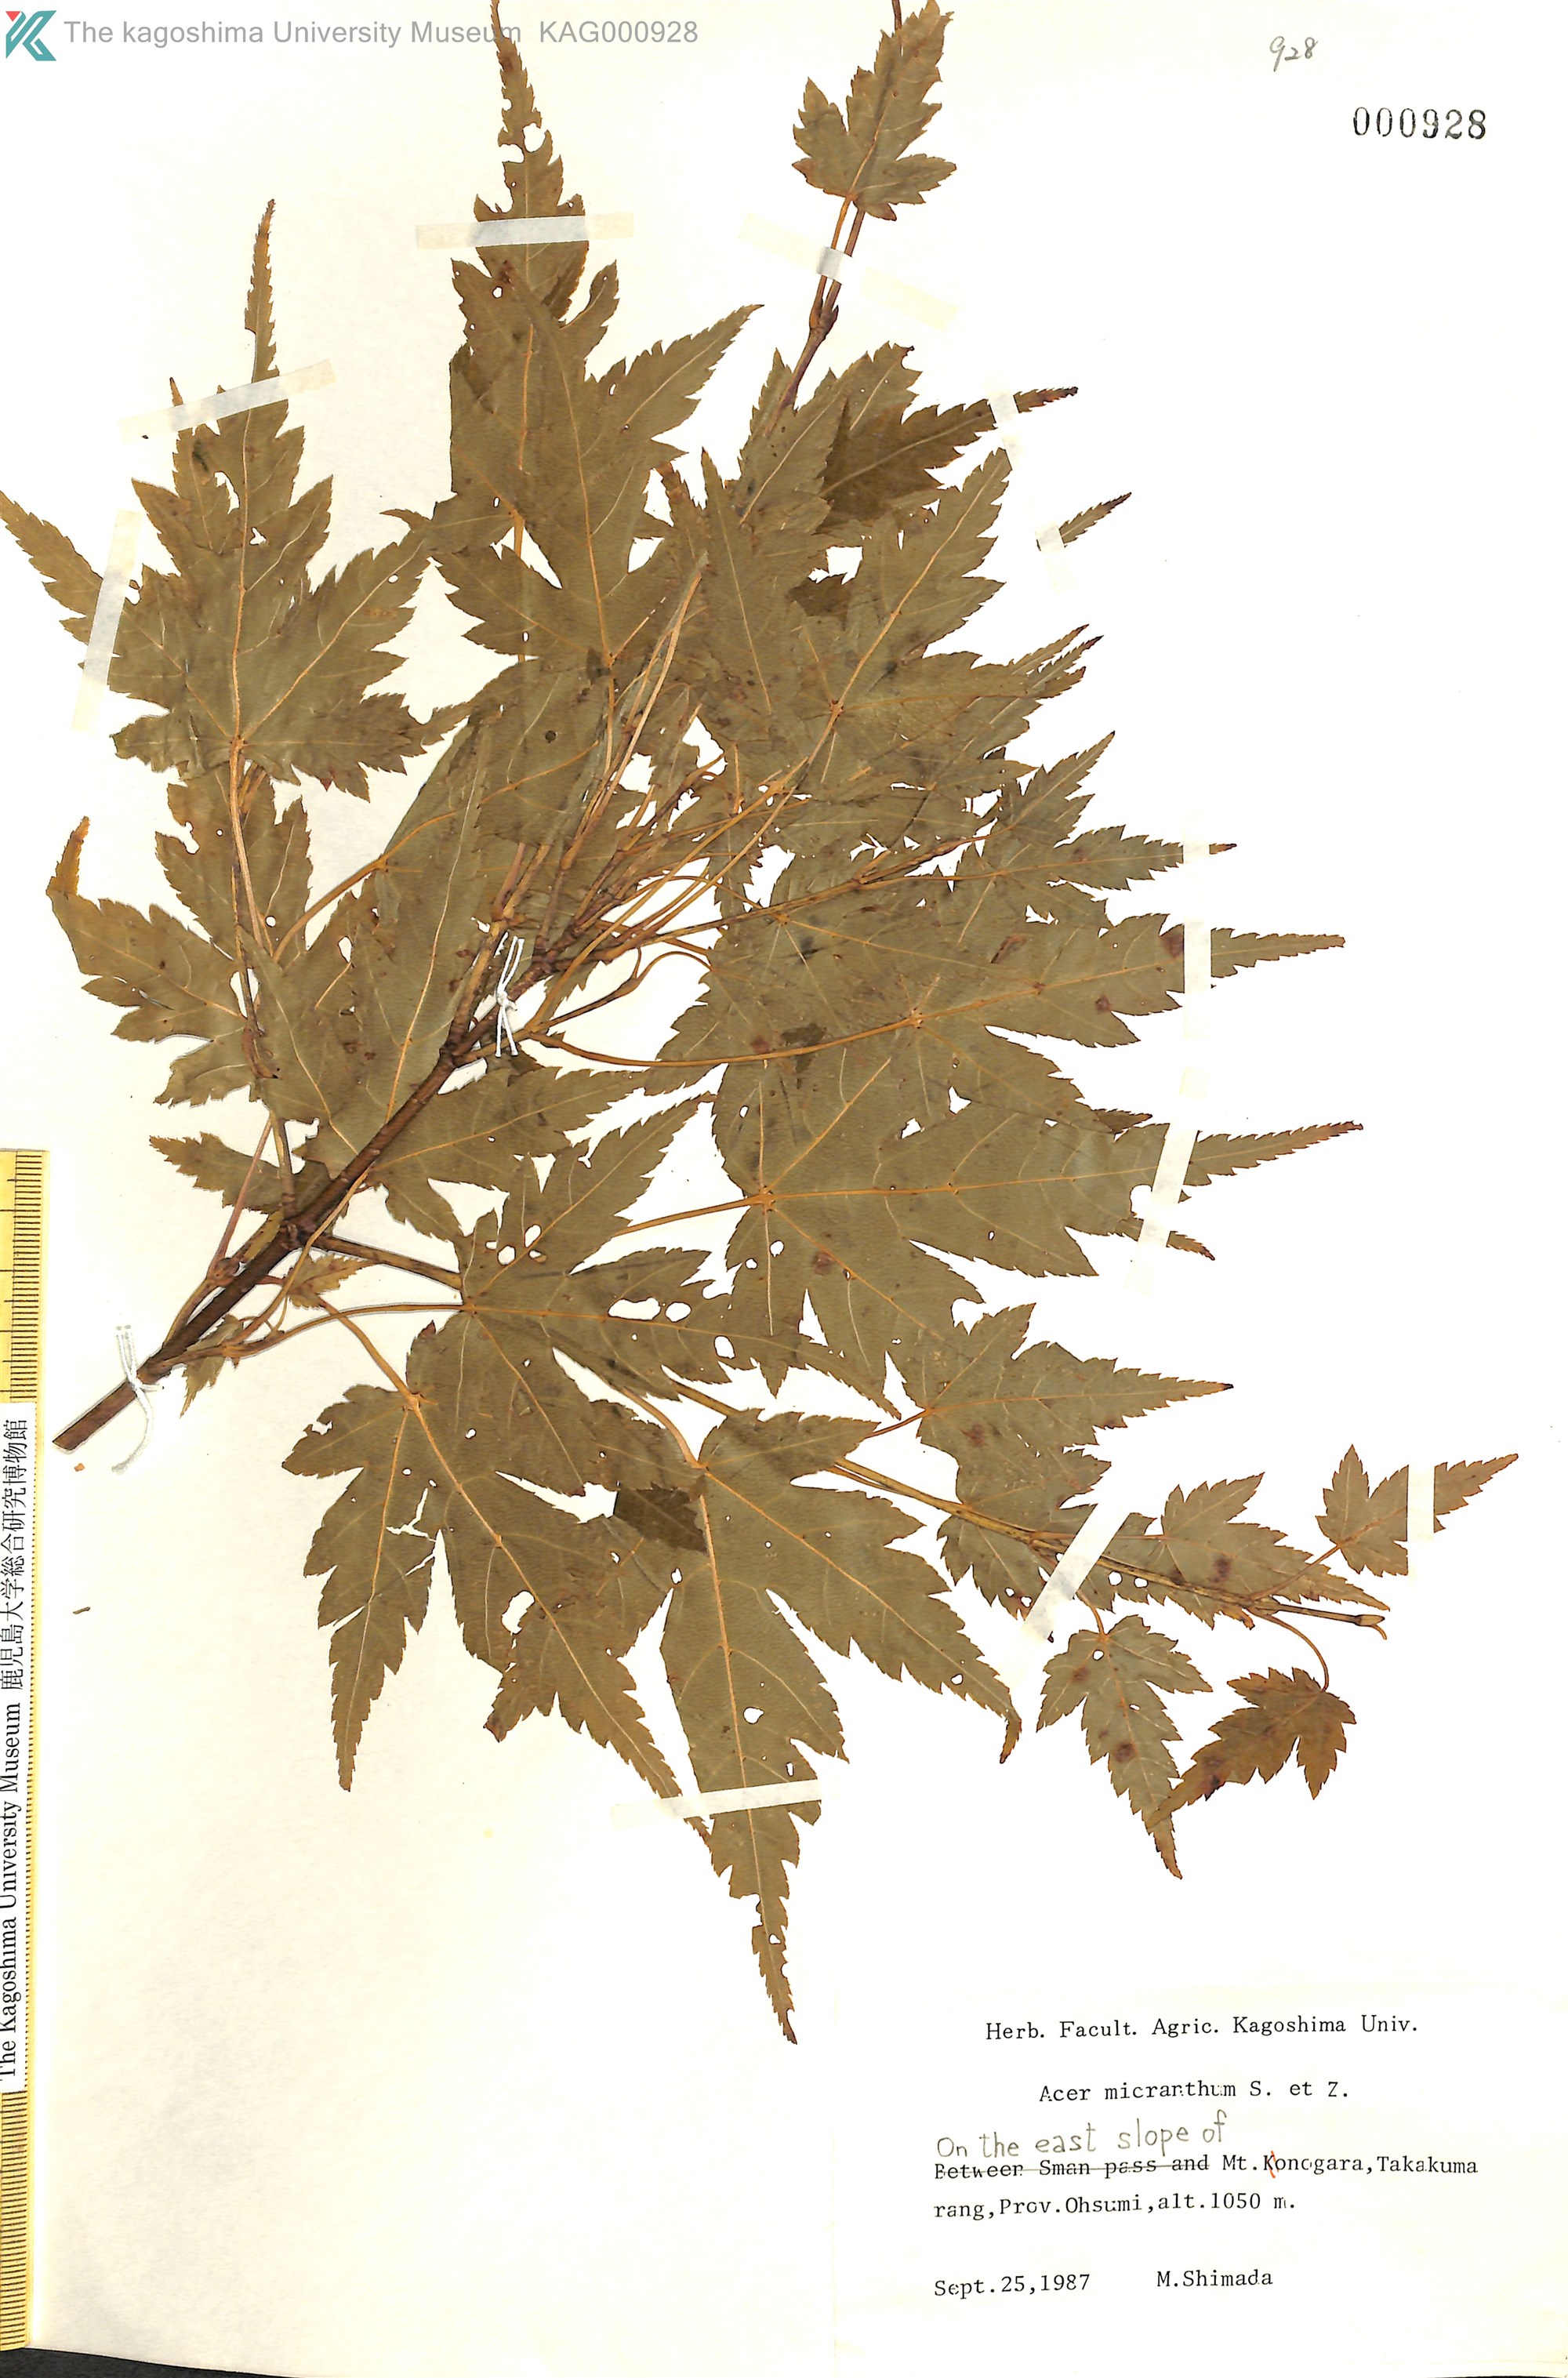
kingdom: Plantae
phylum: Tracheophyta
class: Magnoliopsida
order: Sapindales
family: Sapindaceae
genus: Acer
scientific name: Acer micranthum
